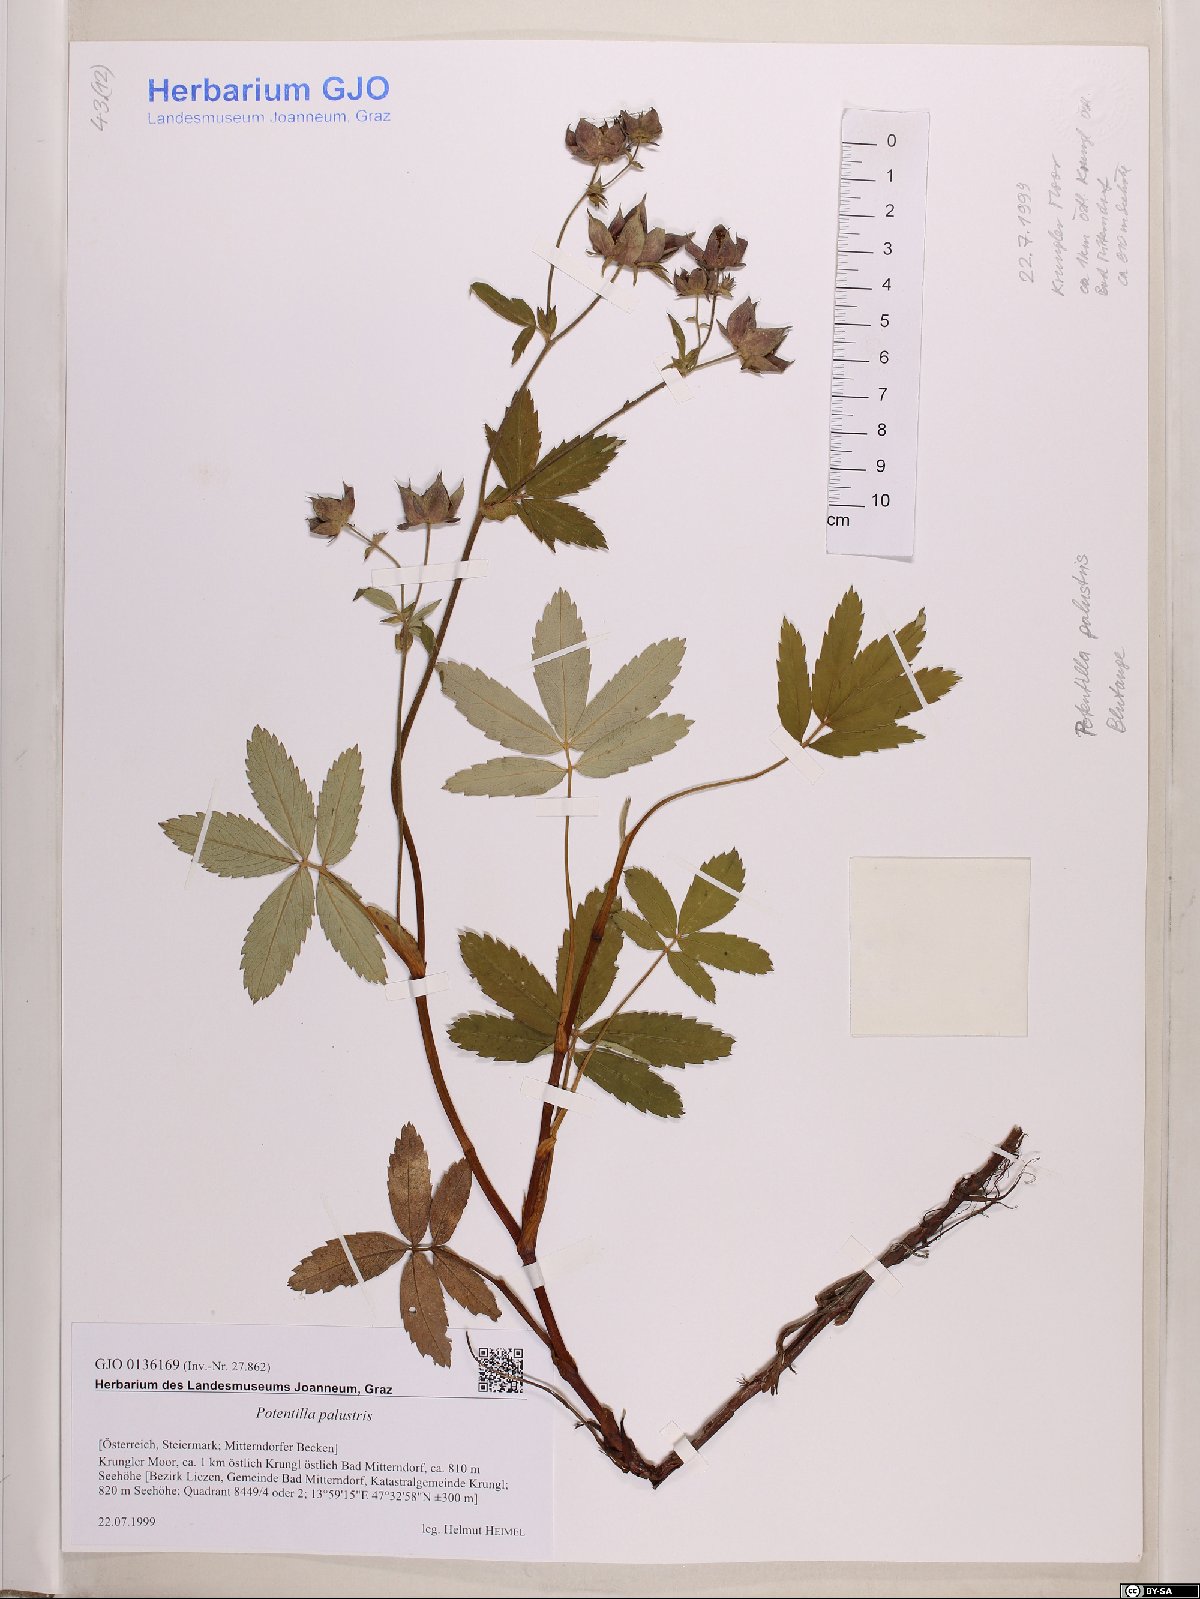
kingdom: Plantae
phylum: Tracheophyta
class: Magnoliopsida
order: Rosales
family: Rosaceae
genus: Comarum
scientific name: Comarum palustre
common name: Marsh cinquefoil
